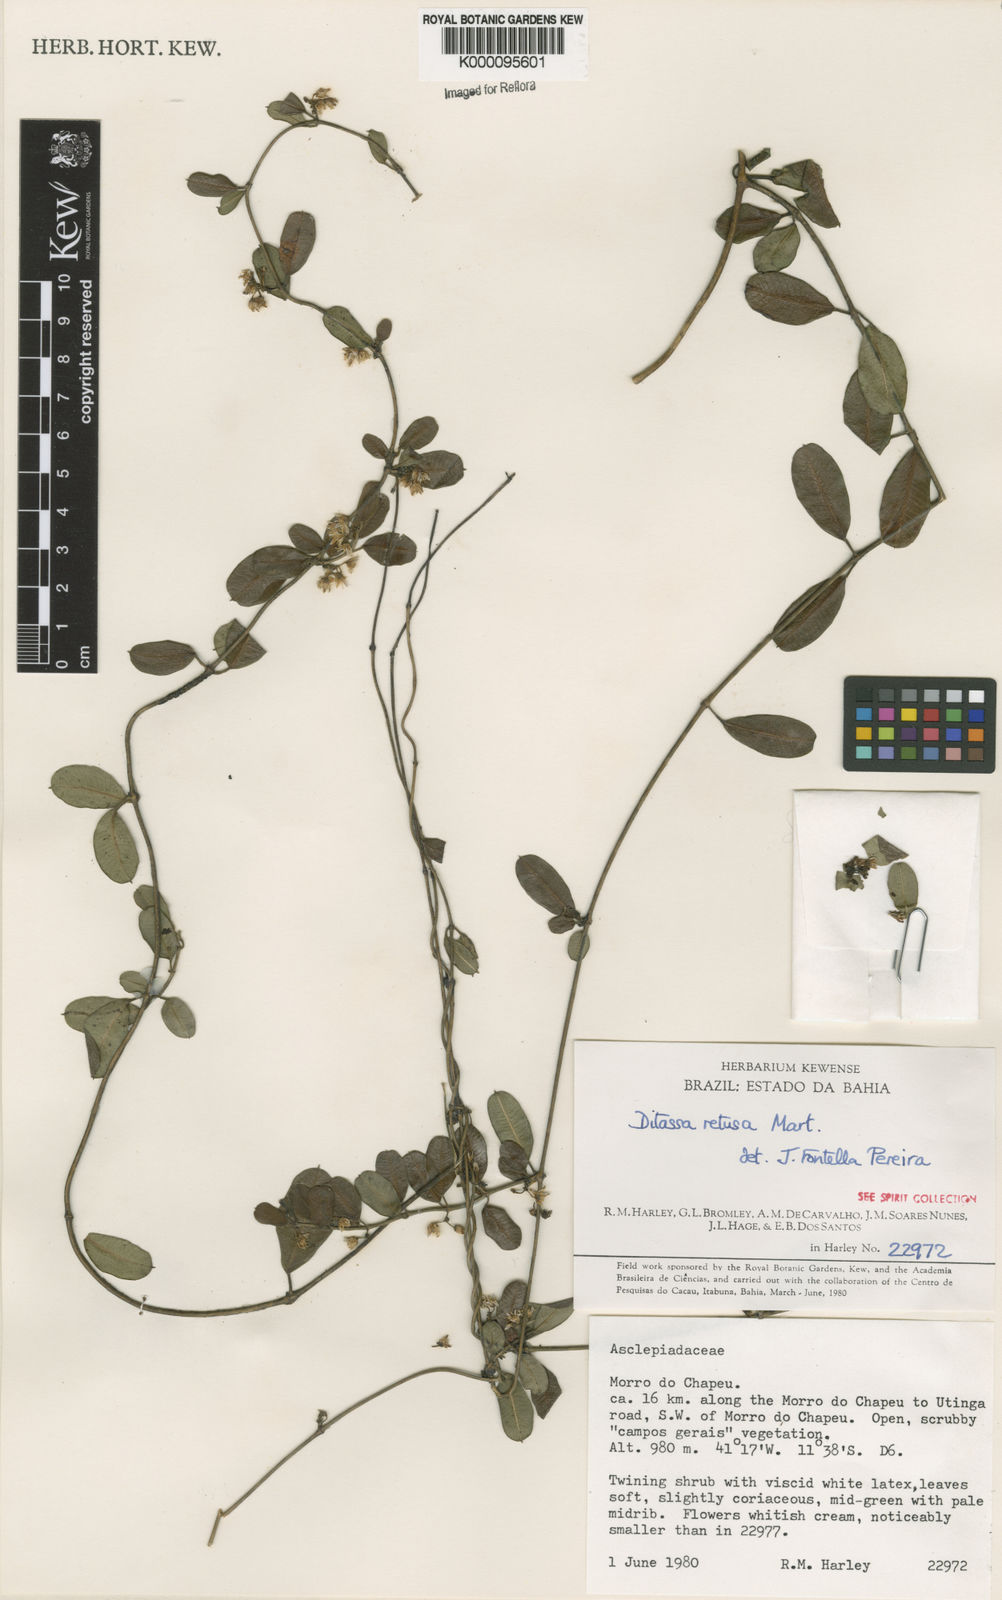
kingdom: Plantae
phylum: Tracheophyta
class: Magnoliopsida
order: Gentianales
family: Apocynaceae
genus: Ditassa
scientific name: Ditassa retusa
